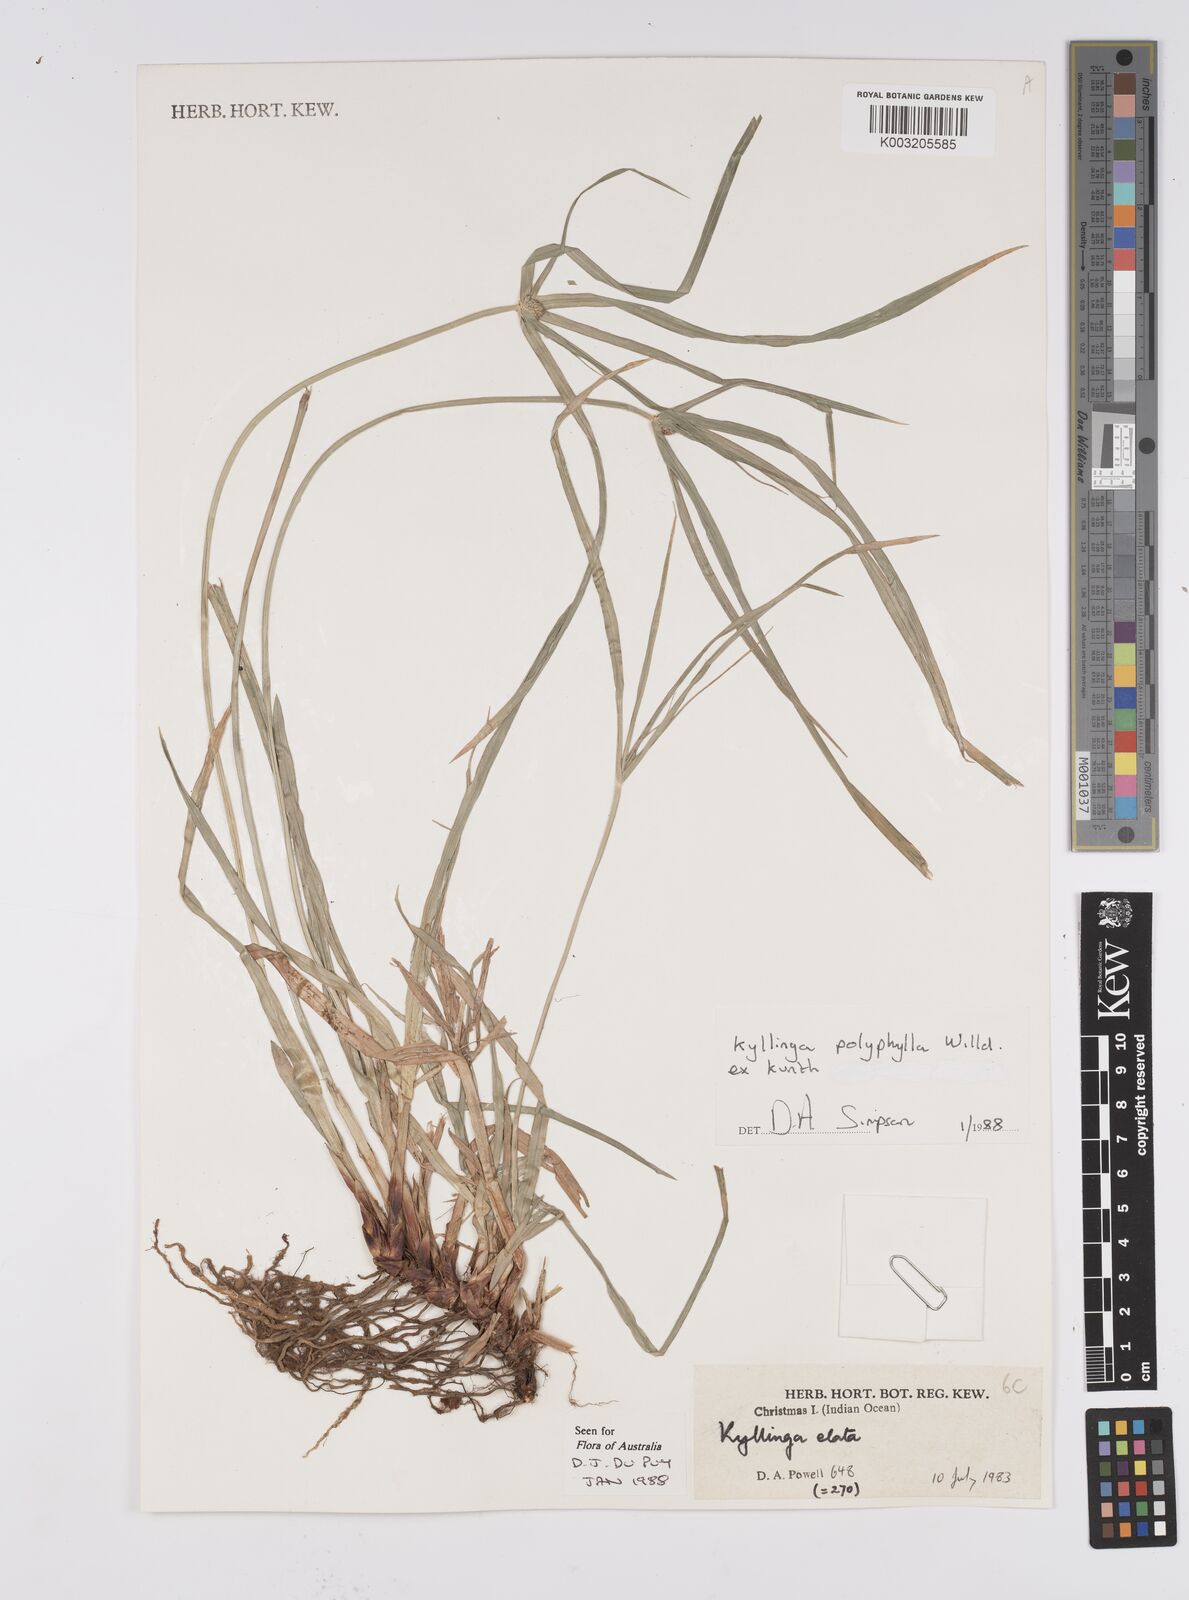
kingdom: Plantae
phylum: Tracheophyta
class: Liliopsida
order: Poales
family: Cyperaceae
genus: Cyperus
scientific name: Cyperus
